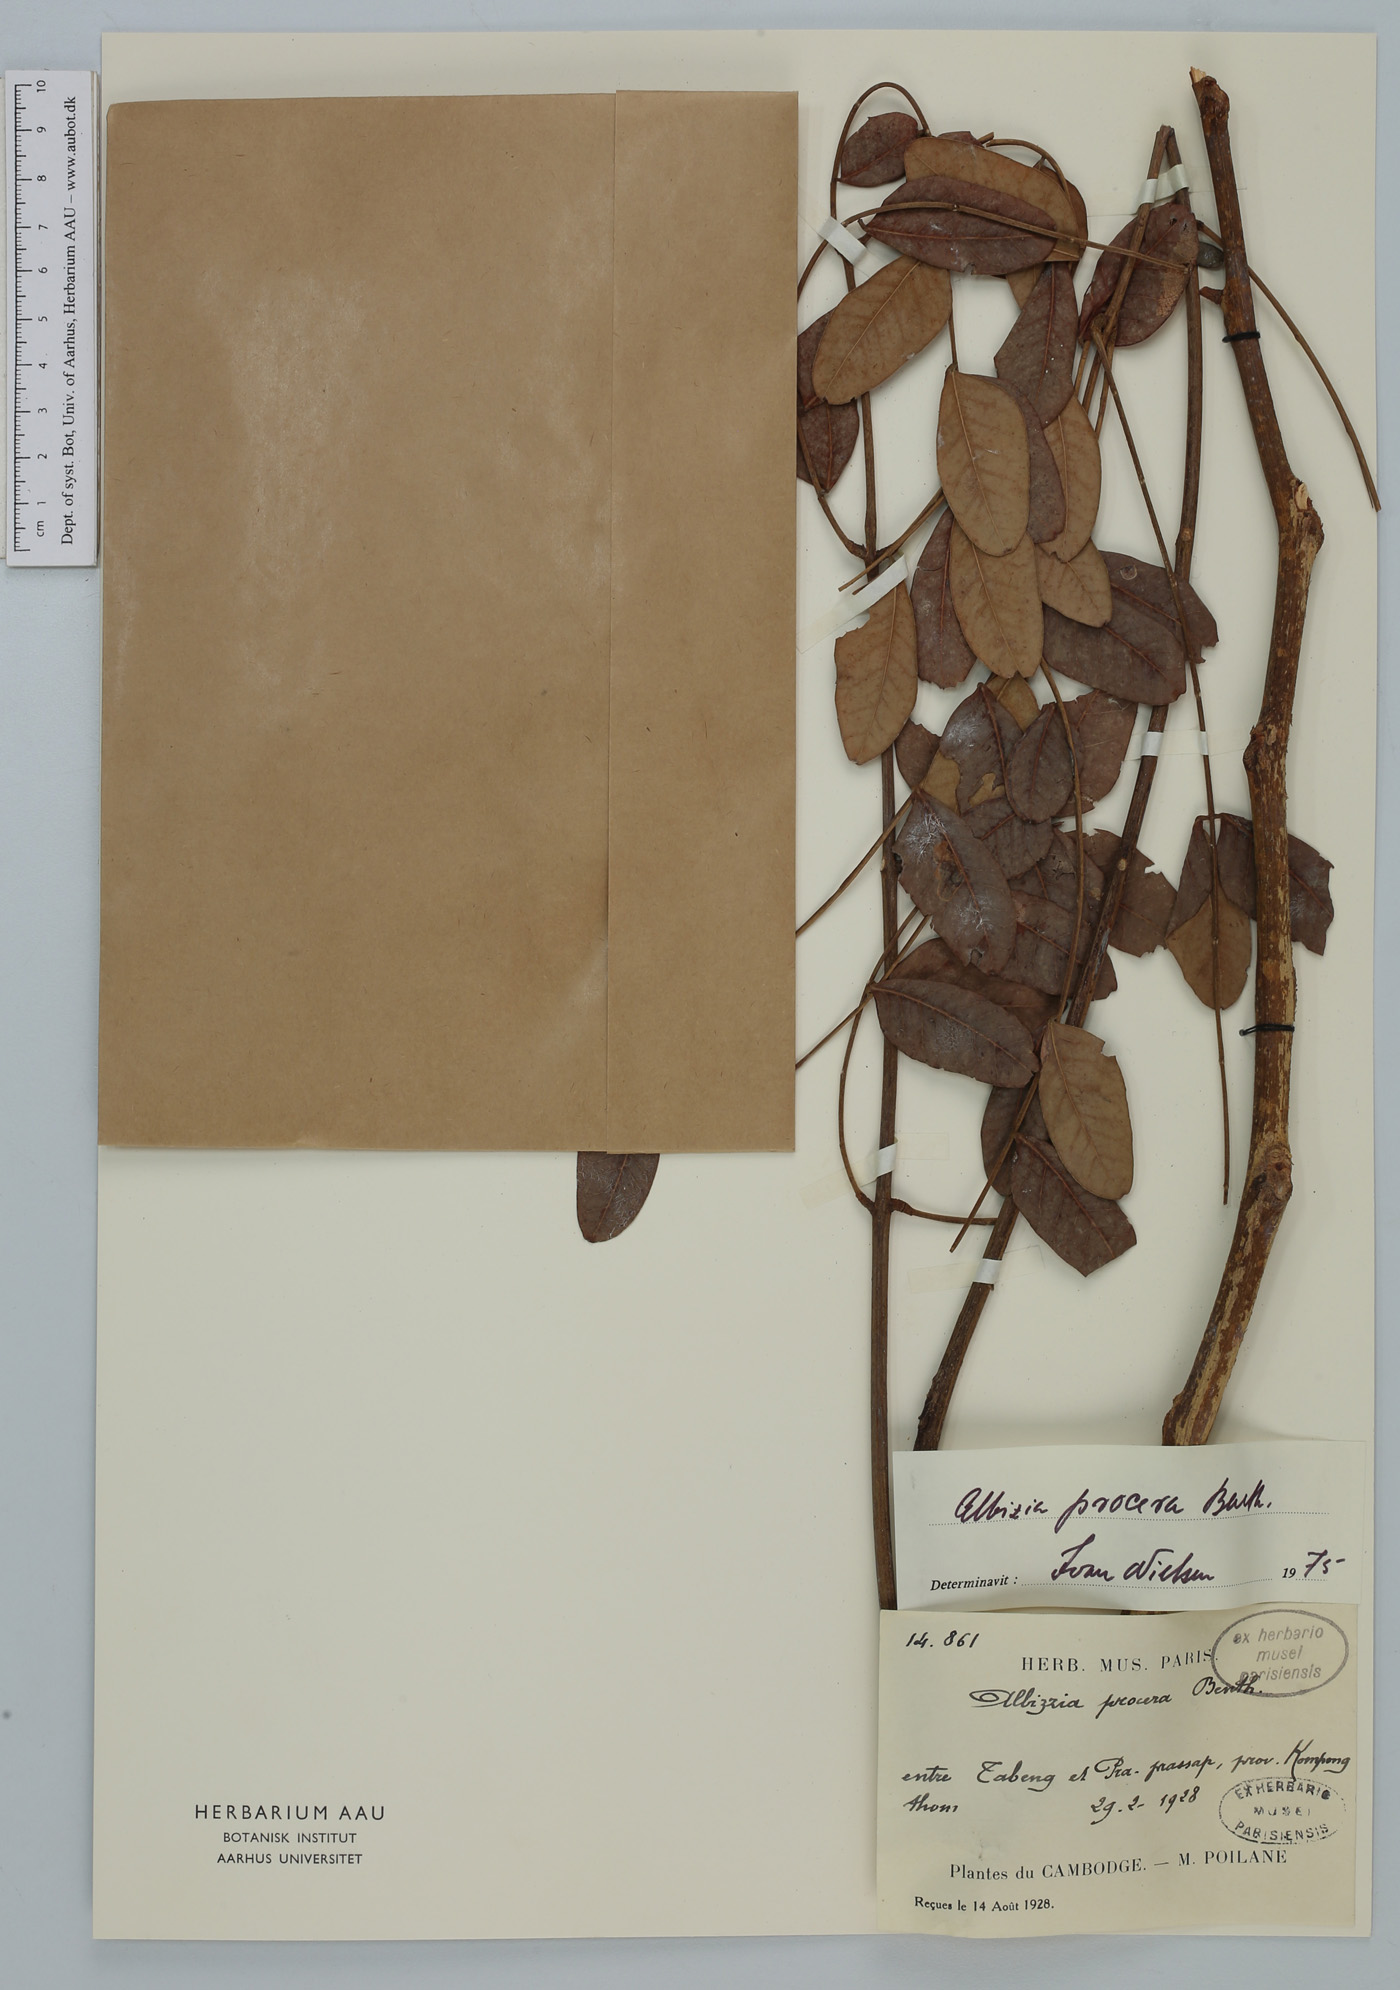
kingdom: Plantae
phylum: Tracheophyta
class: Magnoliopsida
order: Fabales
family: Fabaceae
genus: Albizia
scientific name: Albizia procera
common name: Tall albizia
